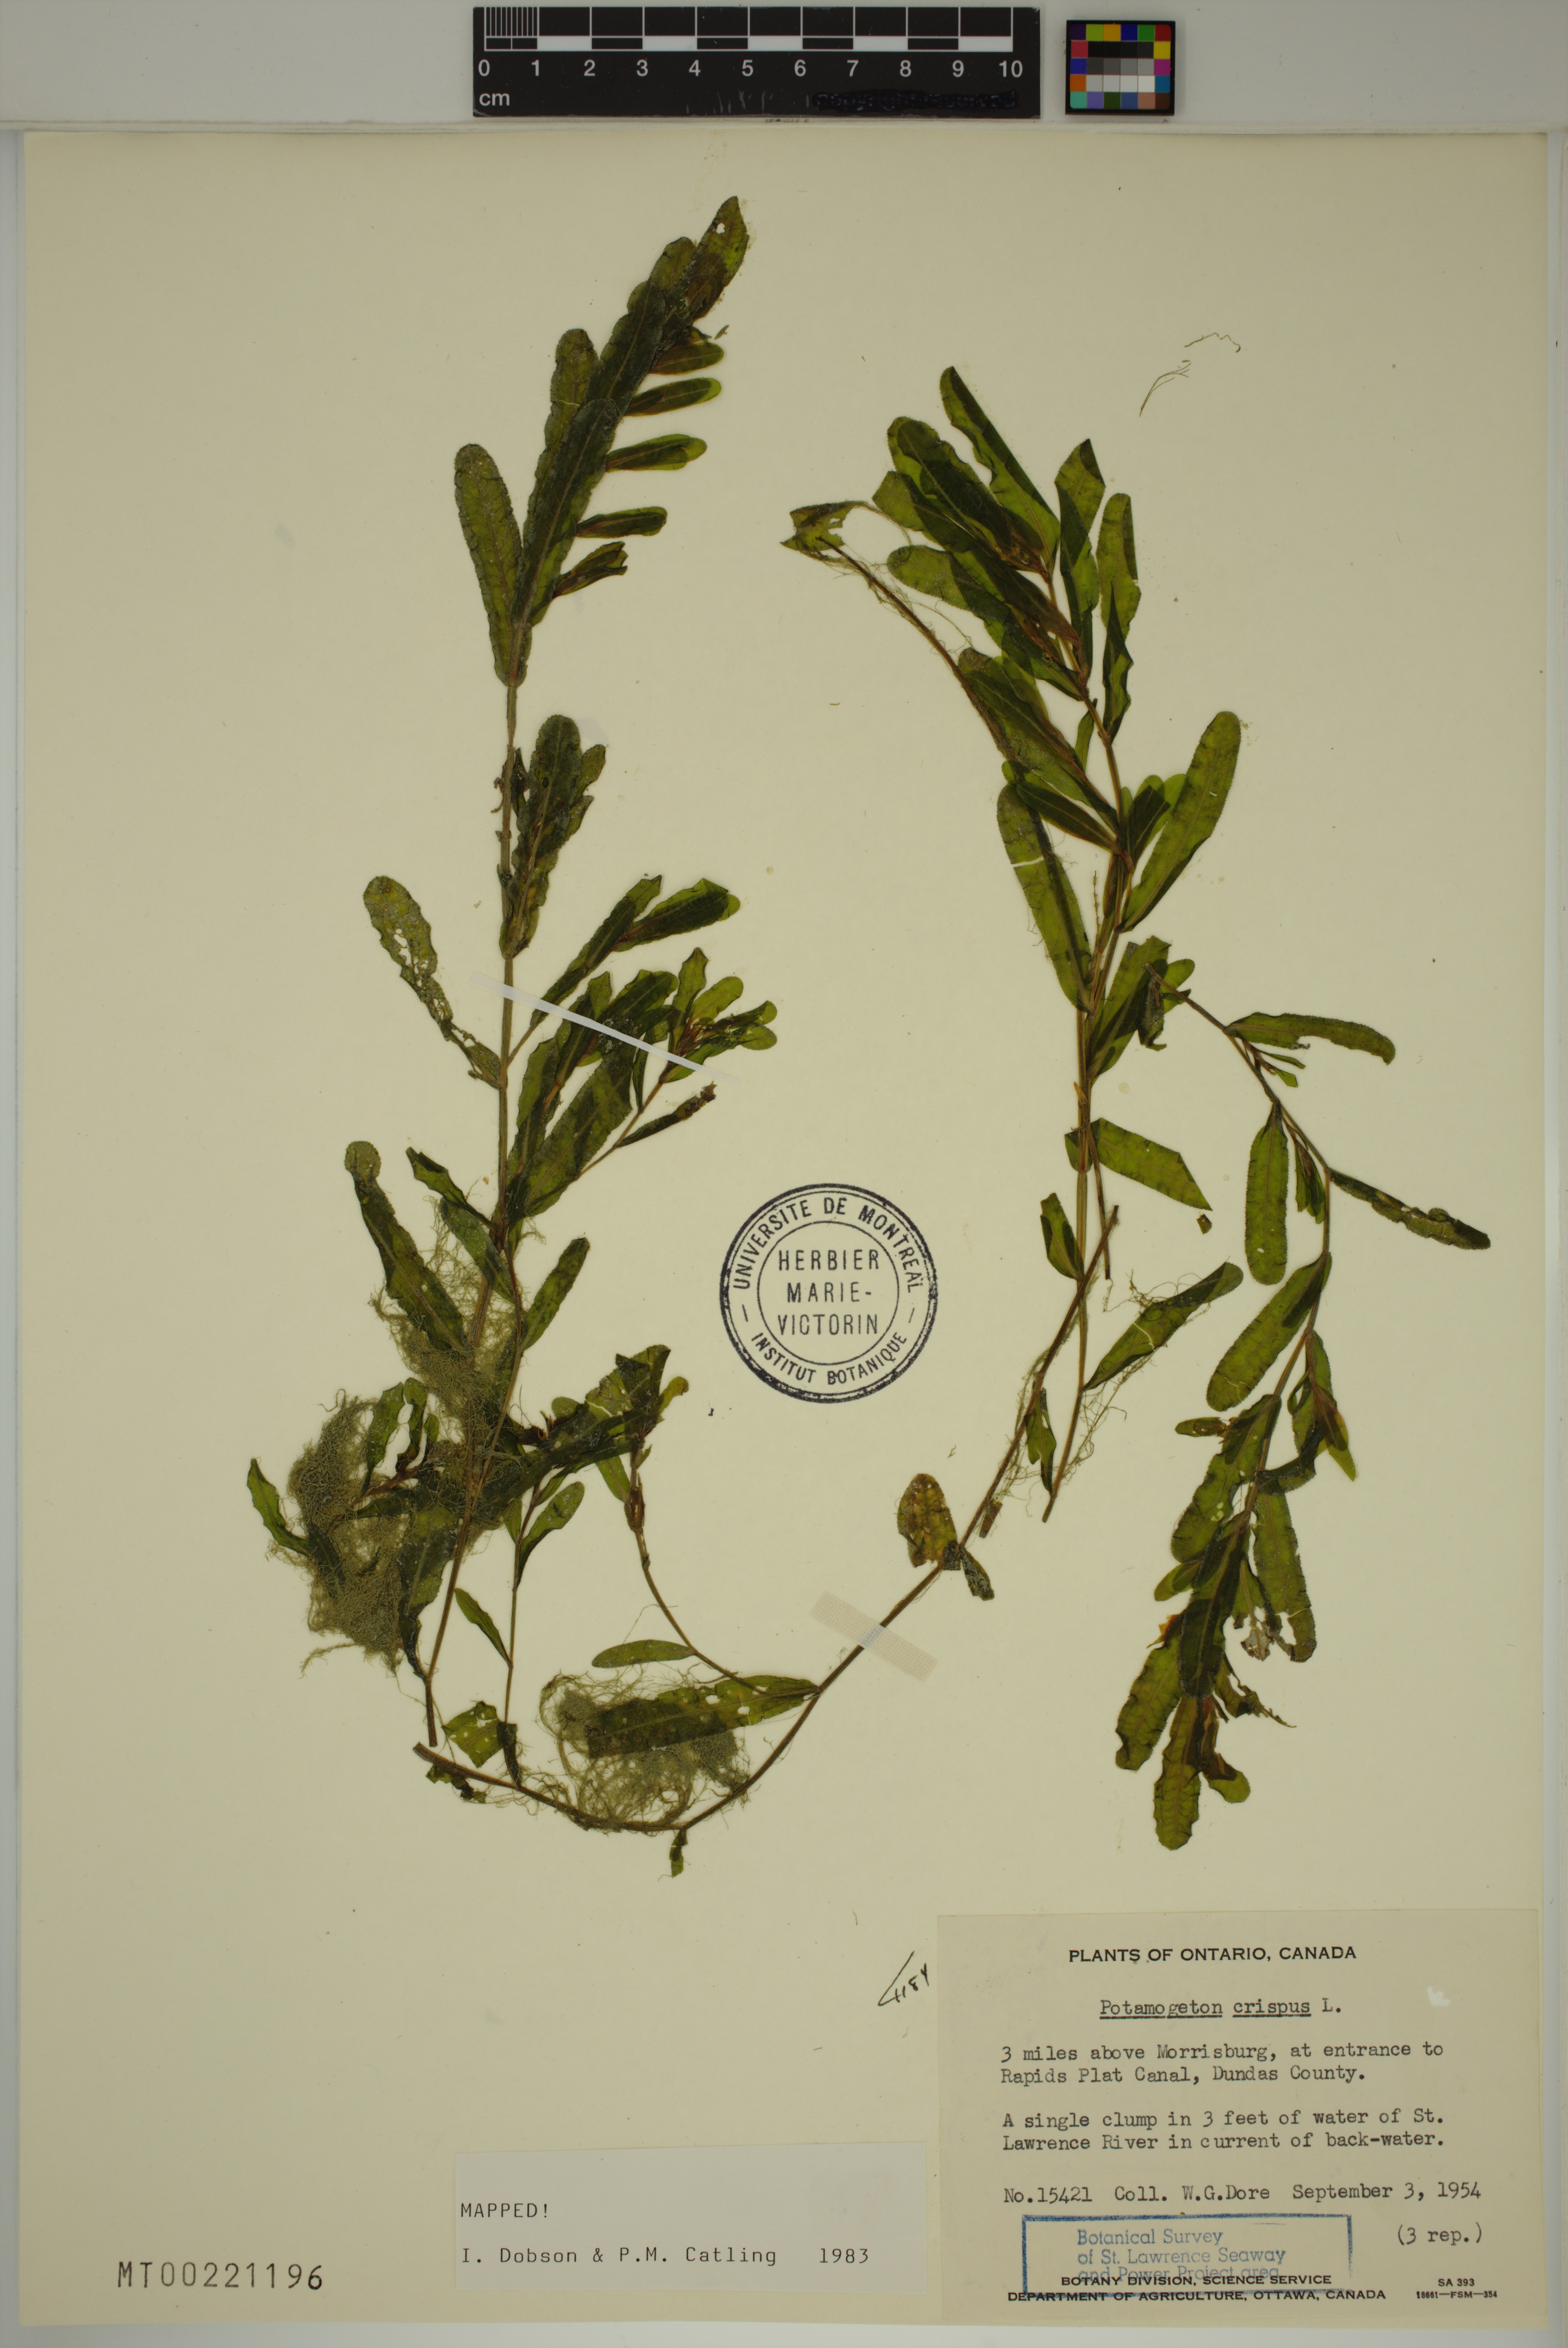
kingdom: Plantae
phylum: Tracheophyta
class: Liliopsida
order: Alismatales
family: Potamogetonaceae
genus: Potamogeton
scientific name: Potamogeton crispus
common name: Curled pondweed
